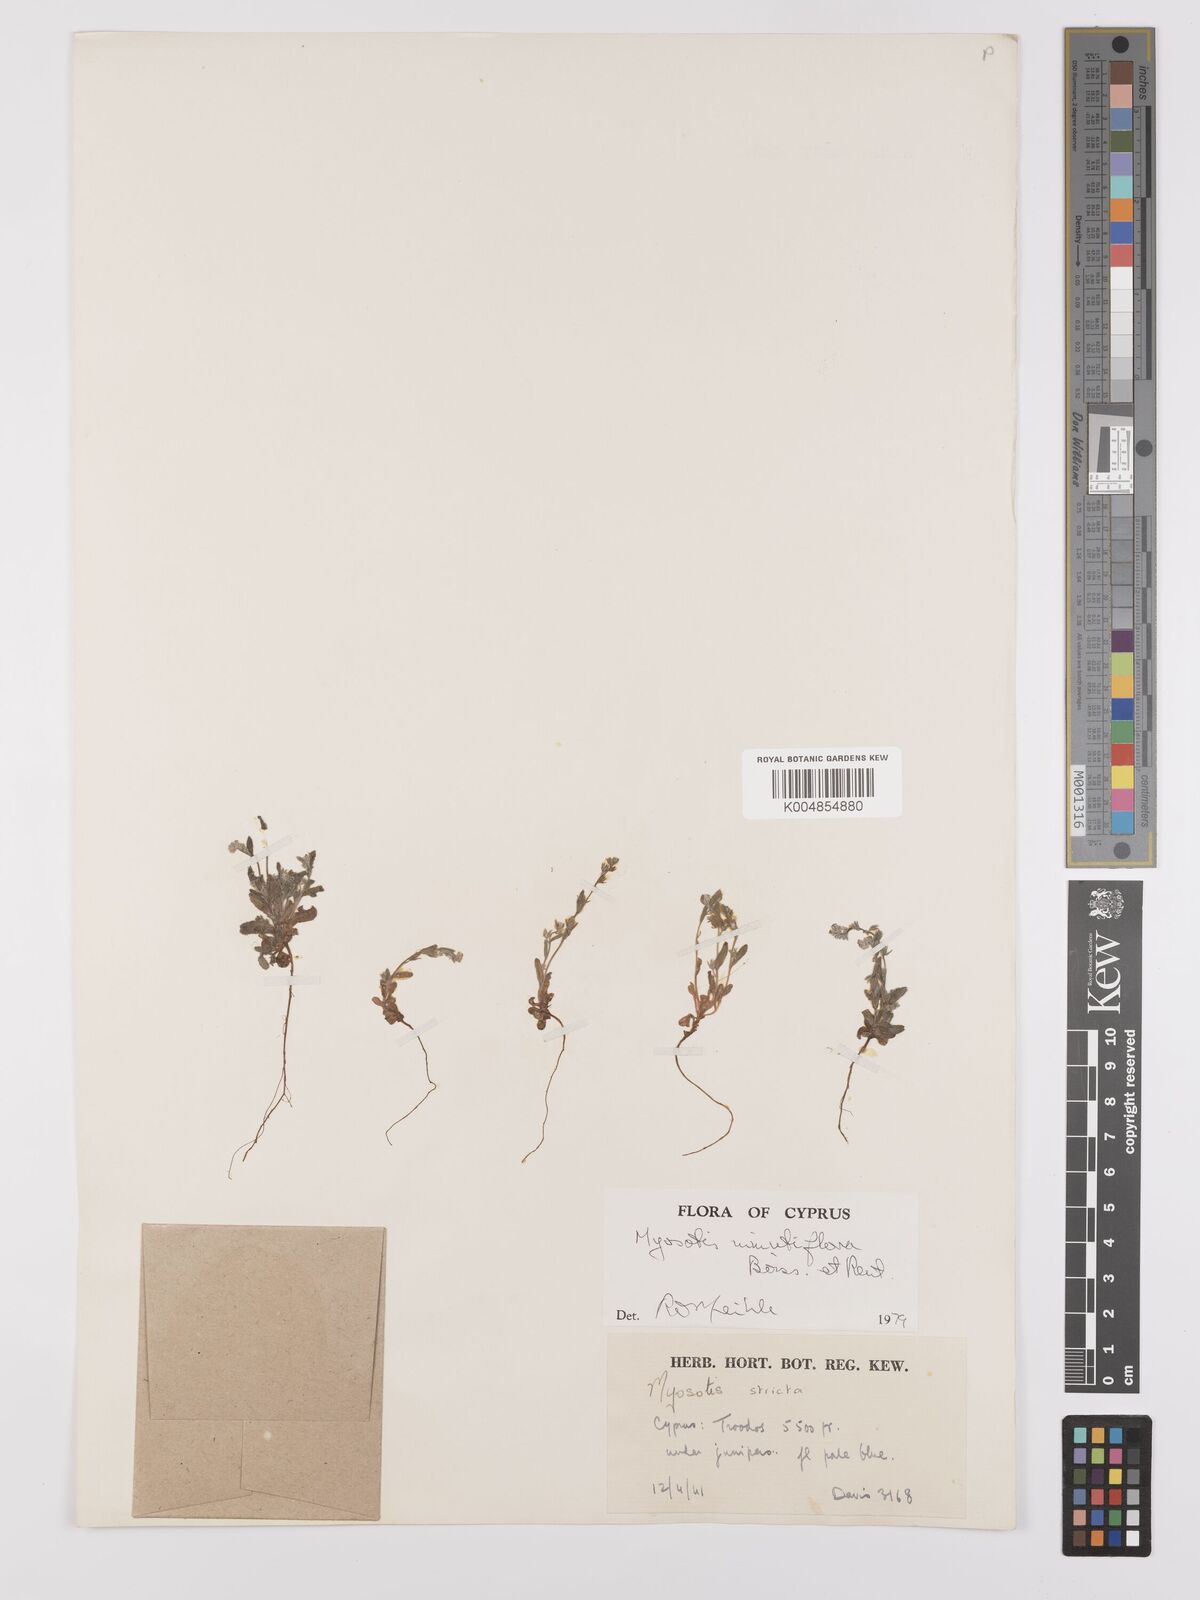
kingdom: Plantae
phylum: Tracheophyta
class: Magnoliopsida
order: Boraginales
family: Boraginaceae
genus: Myosotis
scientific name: Myosotis minutiflora
